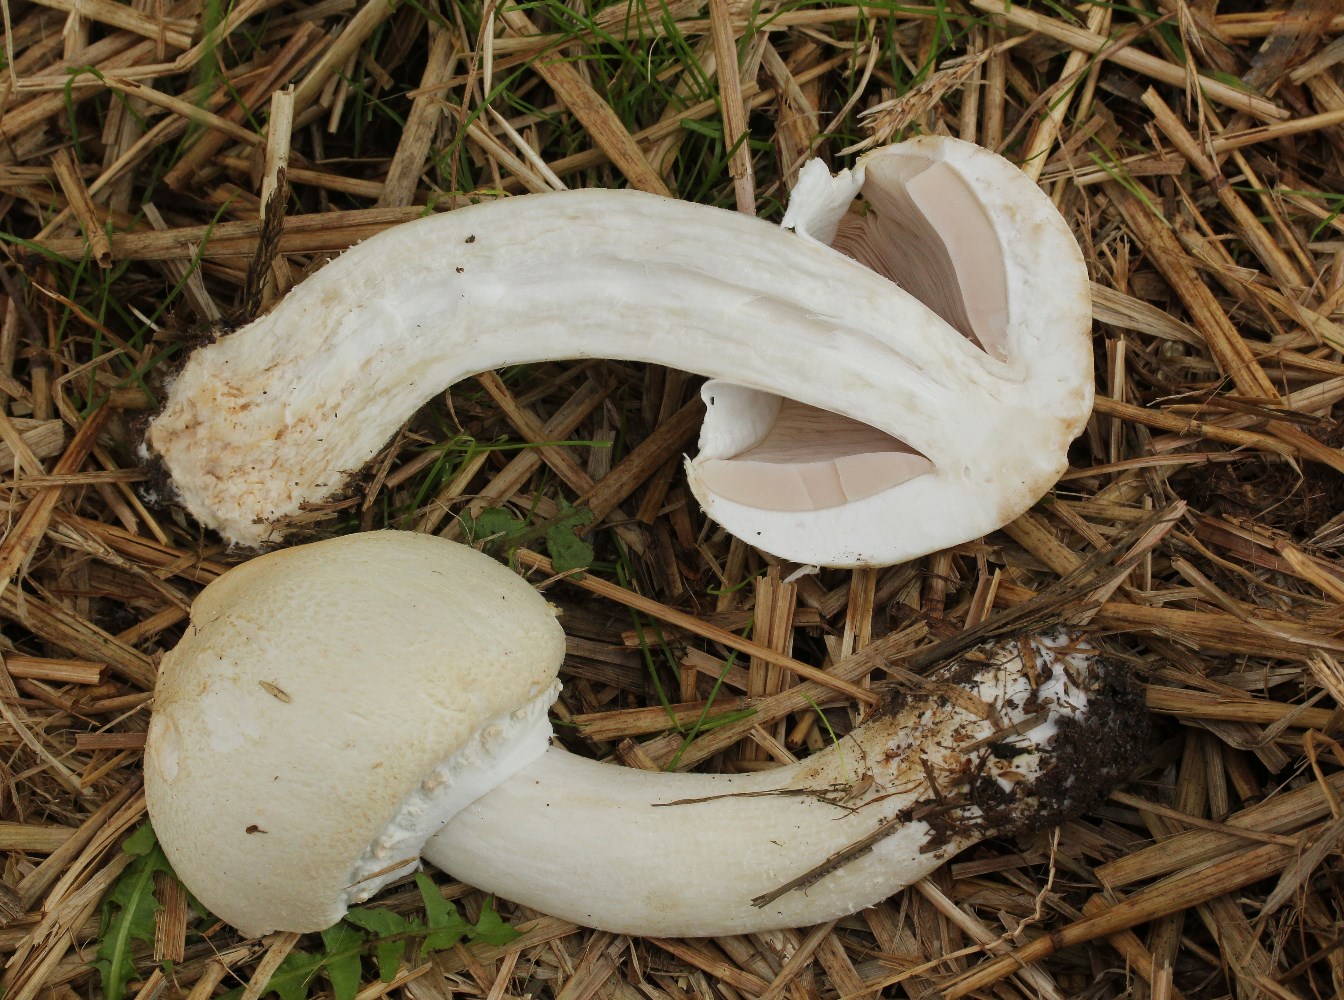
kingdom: Fungi
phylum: Basidiomycota
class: Agaricomycetes
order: Agaricales
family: Agaricaceae
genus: Agaricus
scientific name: Agaricus arvensis
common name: ager-champignon
